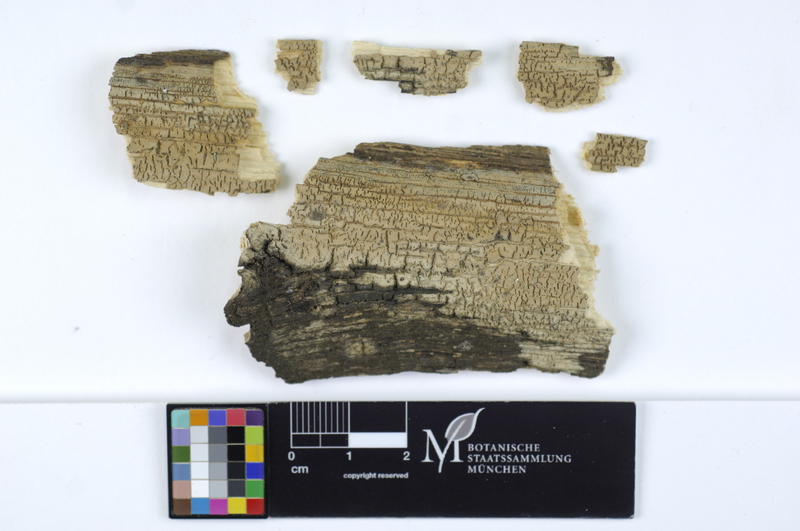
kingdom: Fungi
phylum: Basidiomycota
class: Agaricomycetes
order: Russulales
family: Stereaceae
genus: Megalocystidium
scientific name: Megalocystidium leucoxanthum
